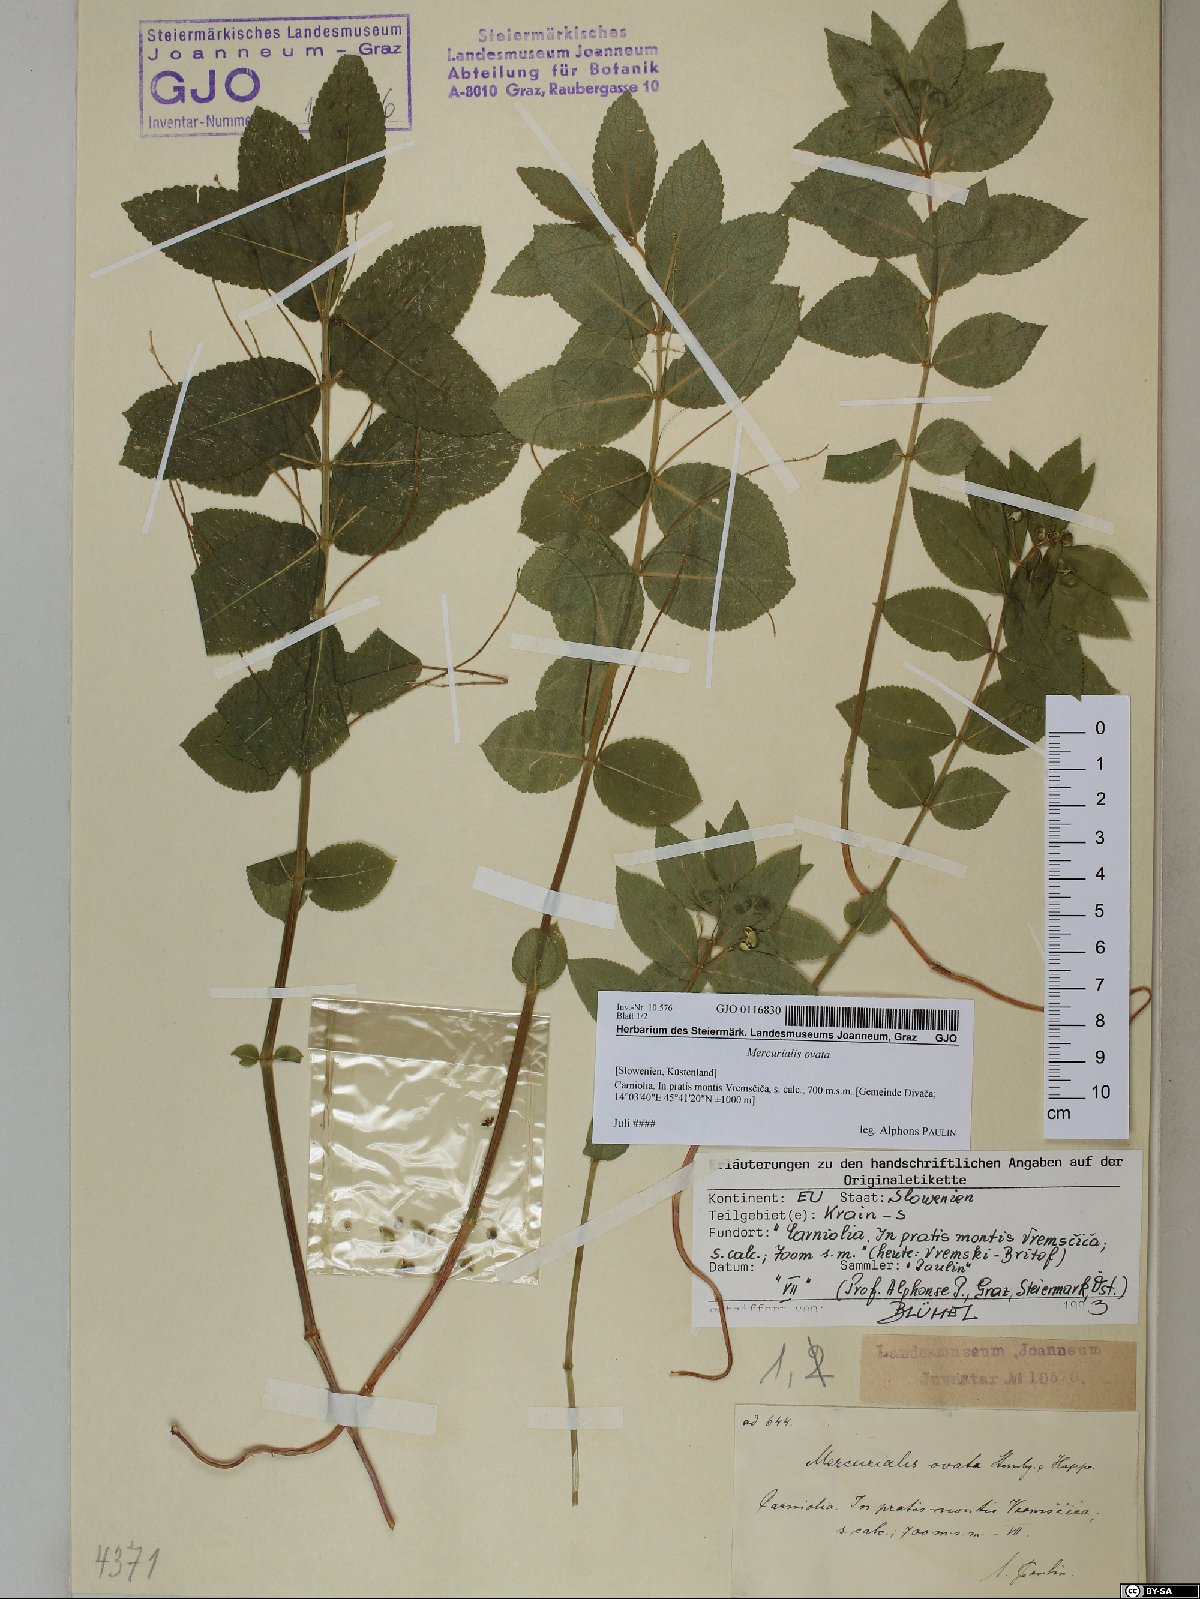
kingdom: Plantae
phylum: Tracheophyta
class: Magnoliopsida
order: Malpighiales
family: Euphorbiaceae
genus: Mercurialis
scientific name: Mercurialis ovata
